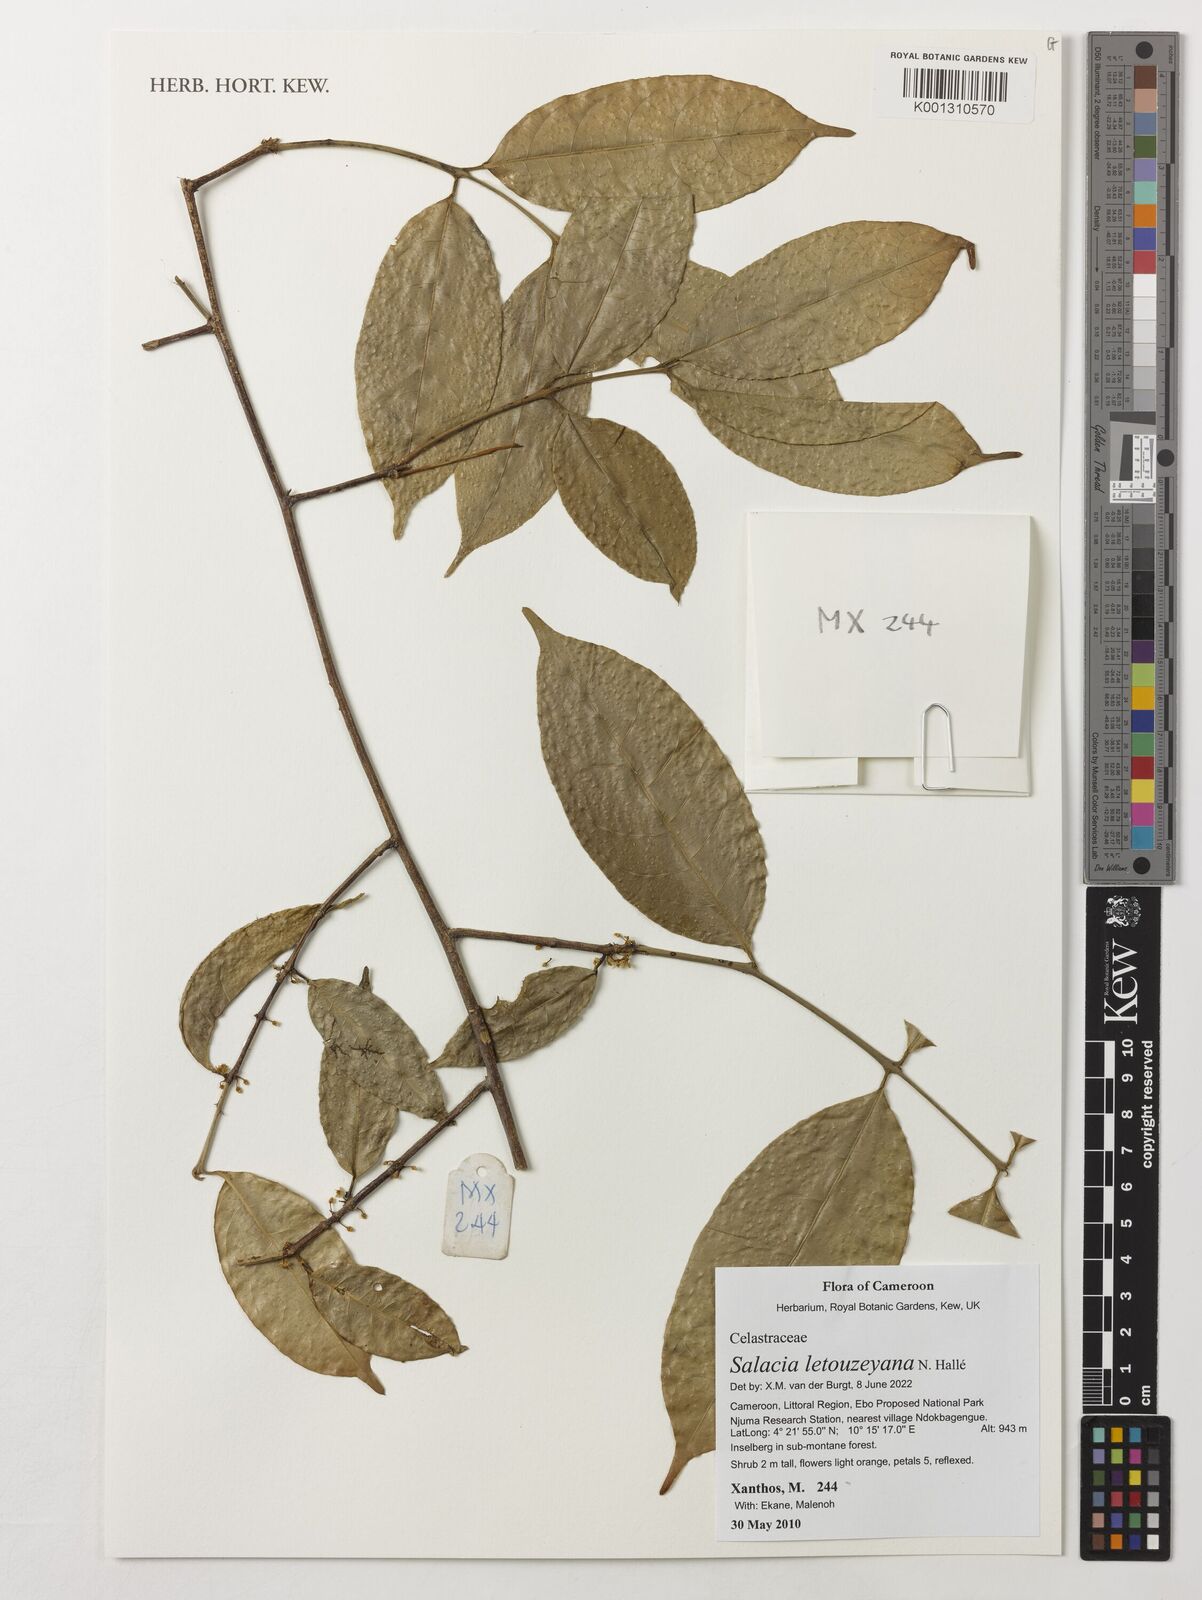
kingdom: Plantae
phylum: Tracheophyta
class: Magnoliopsida
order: Celastrales
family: Celastraceae
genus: Salacia
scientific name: Salacia letouzeyana
